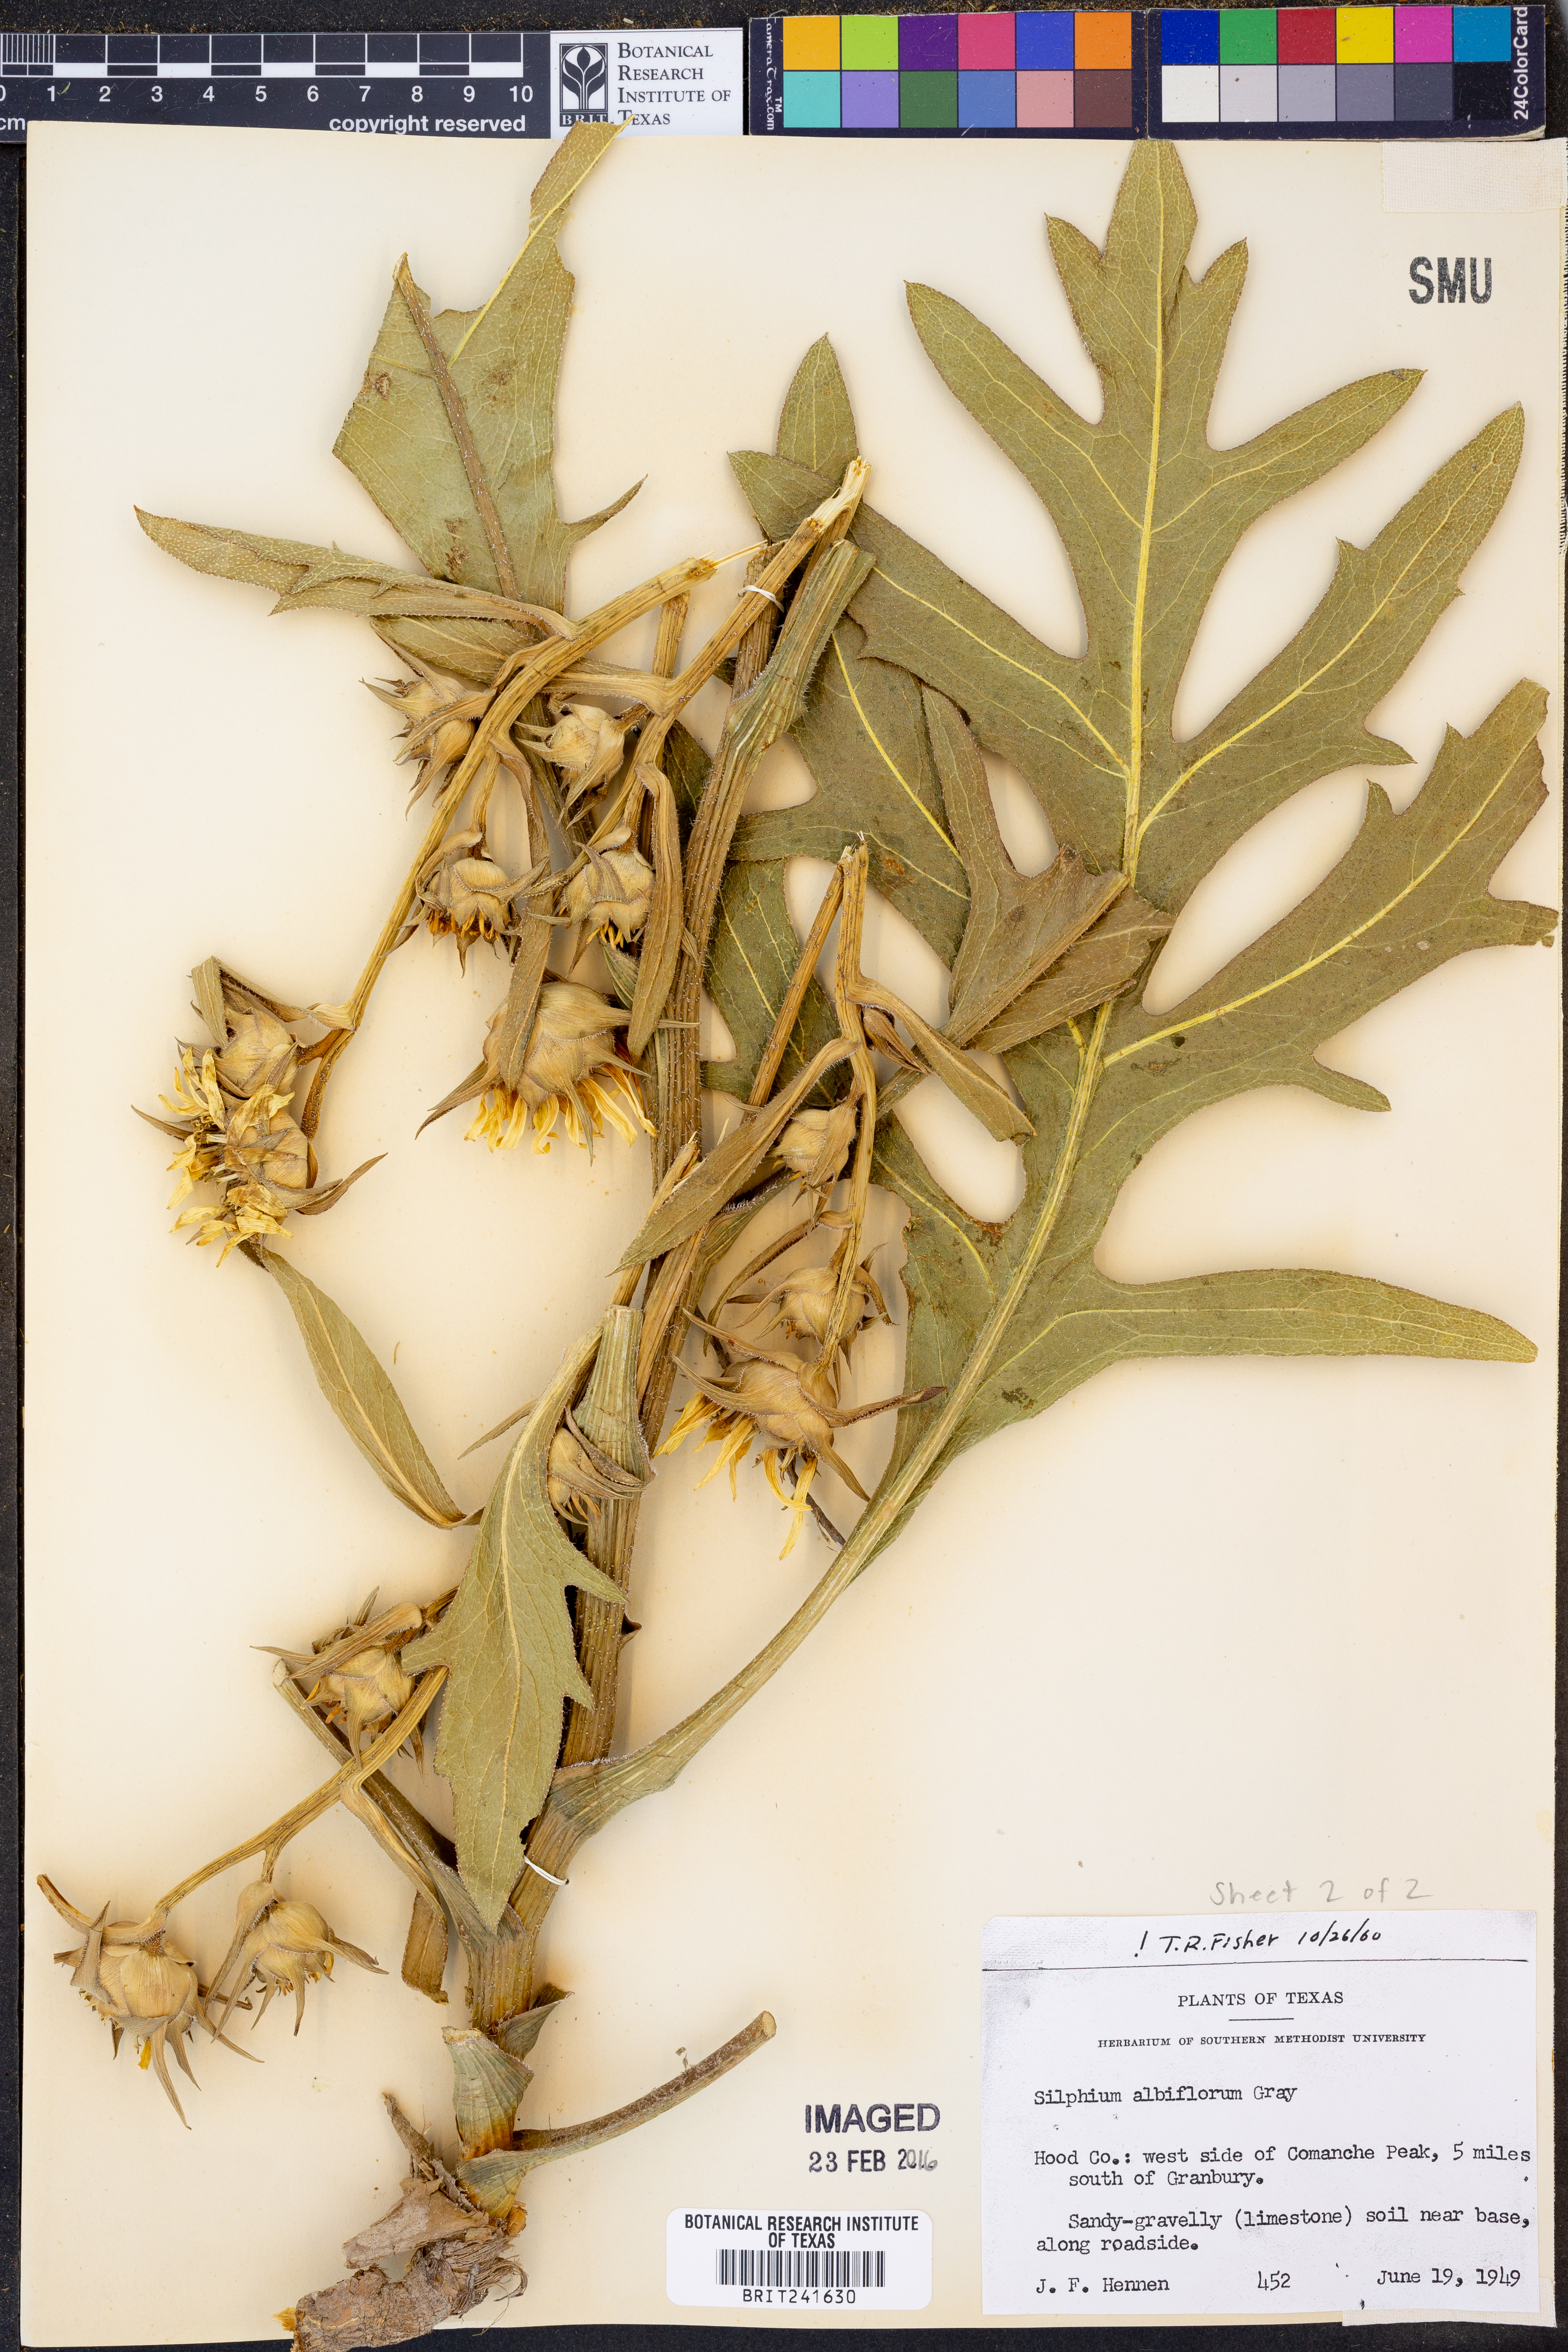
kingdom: Plantae
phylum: Tracheophyta
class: Magnoliopsida
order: Asterales
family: Asteraceae
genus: Silphium
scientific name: Silphium albiflorum
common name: White rosinweed
